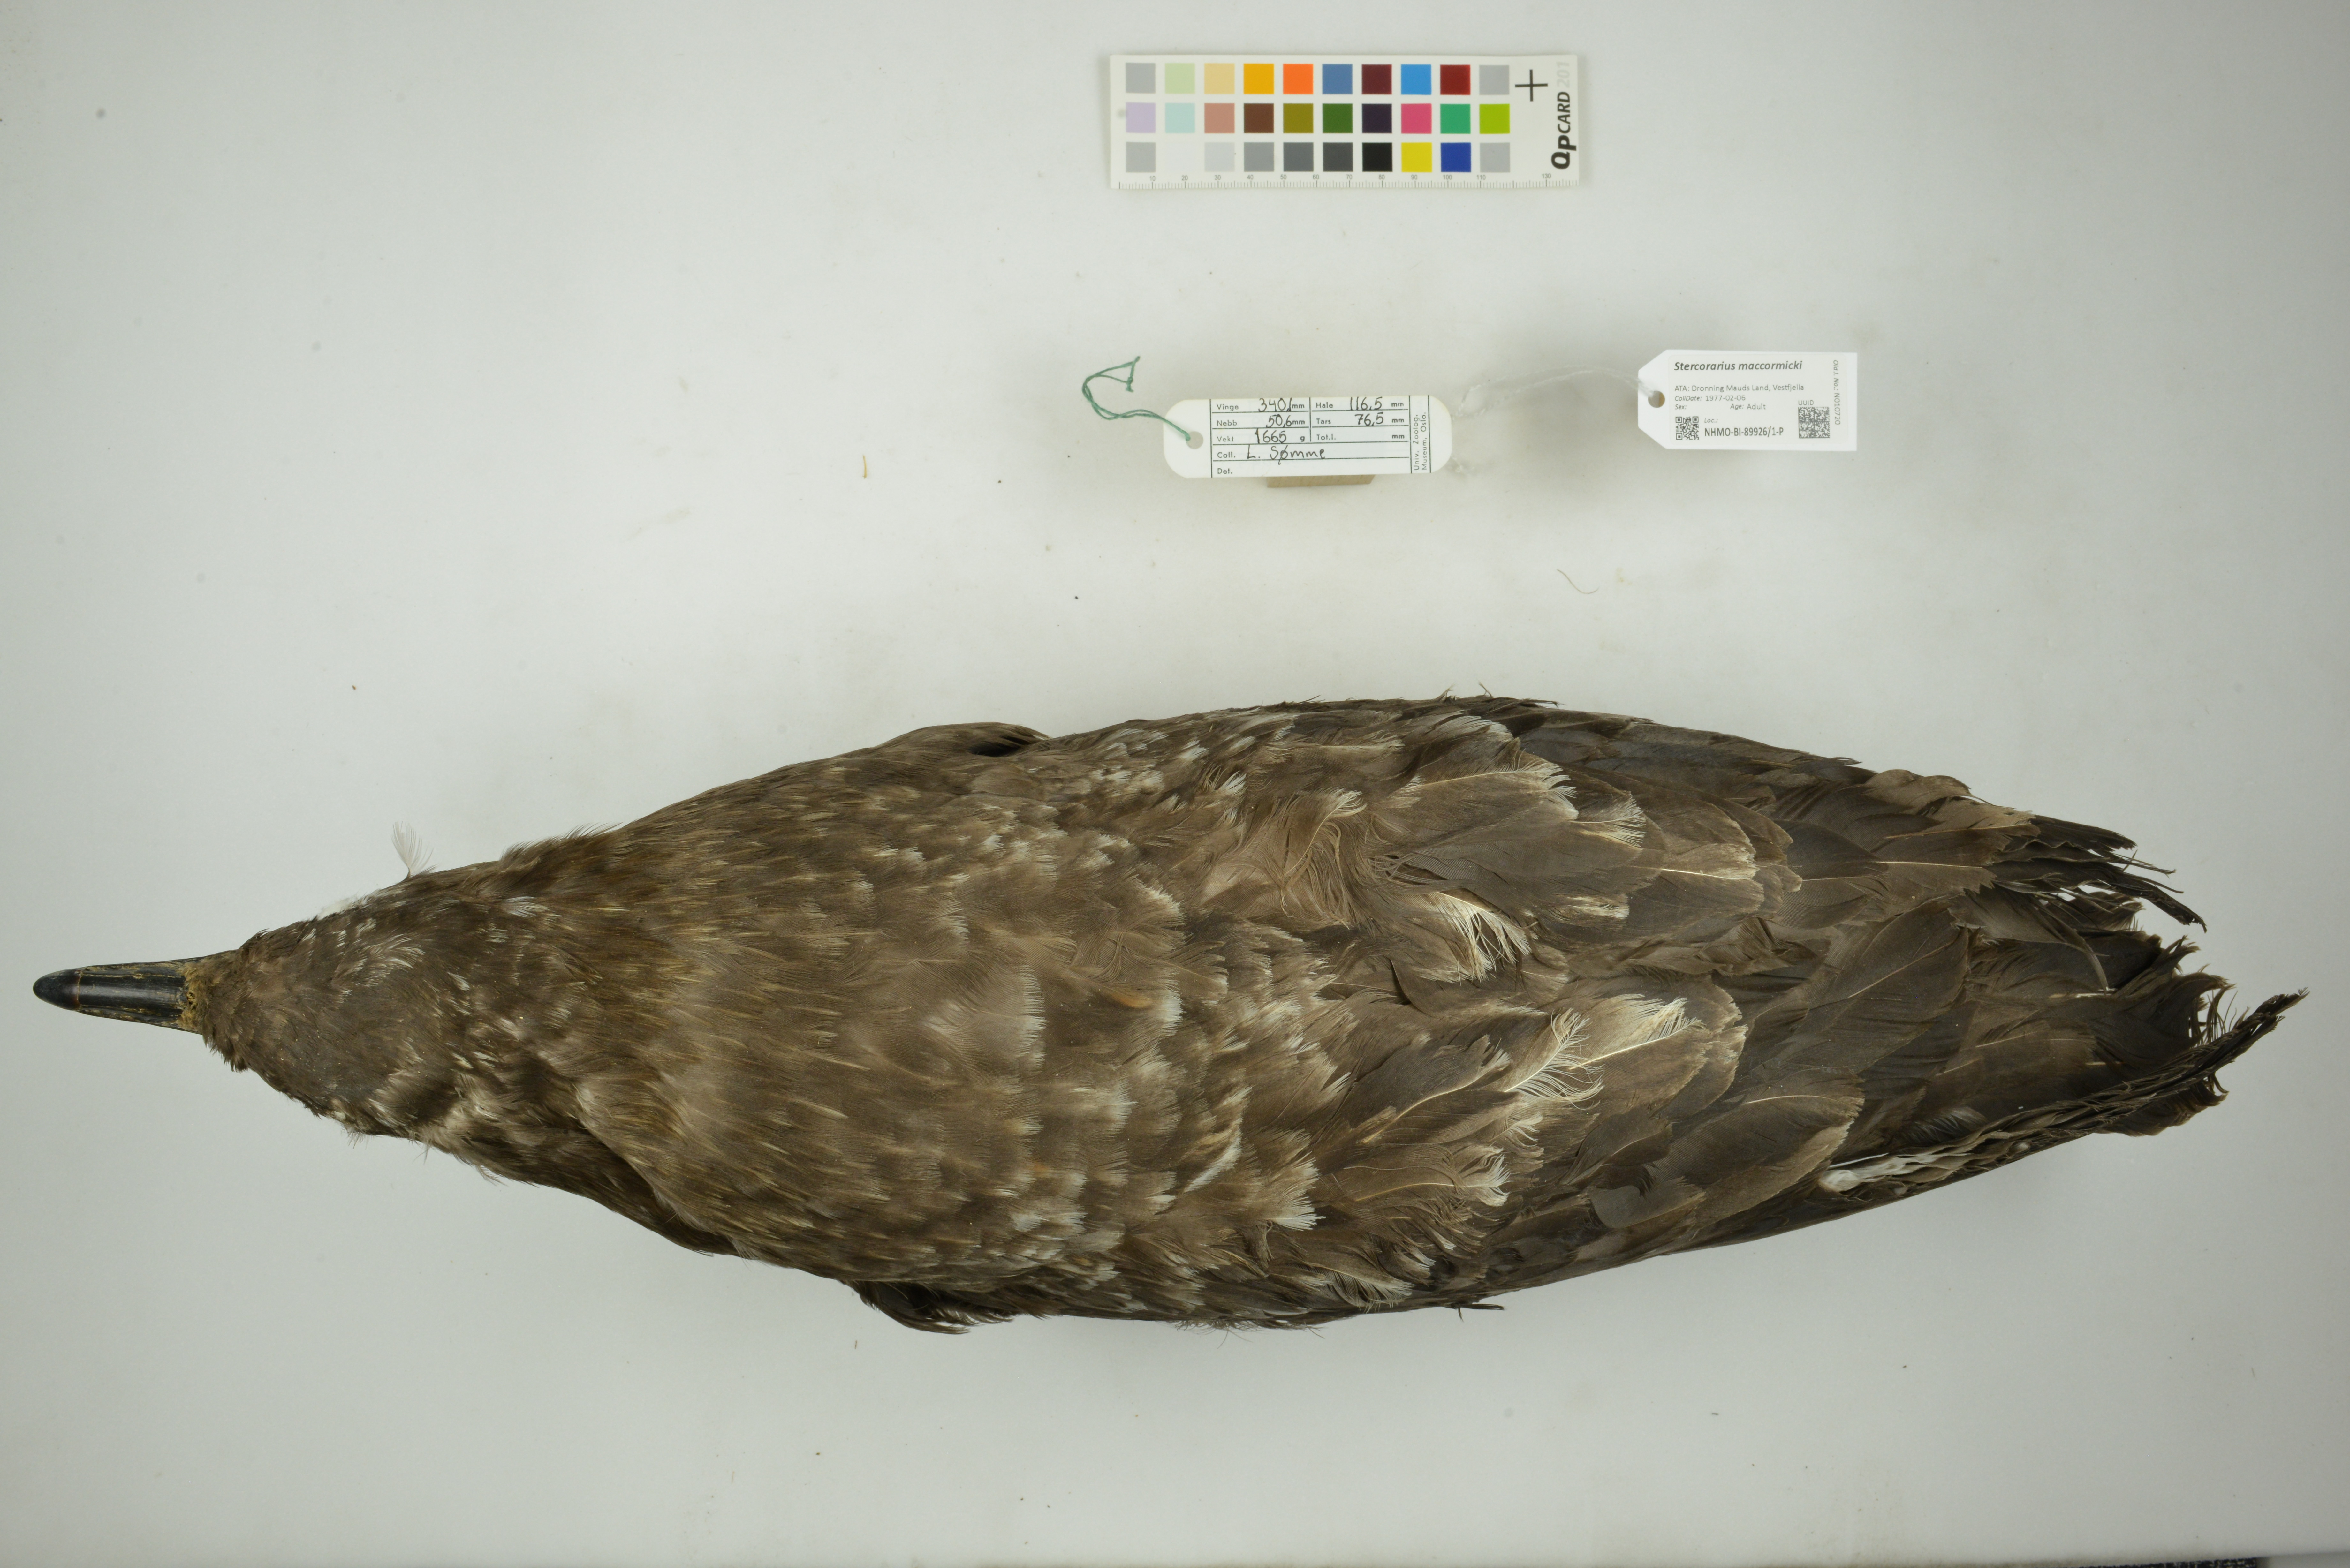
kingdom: Animalia
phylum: Chordata
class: Aves
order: Charadriiformes
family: Stercorariidae
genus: Stercorarius
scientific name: Stercorarius maccormicki
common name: South polar skua
